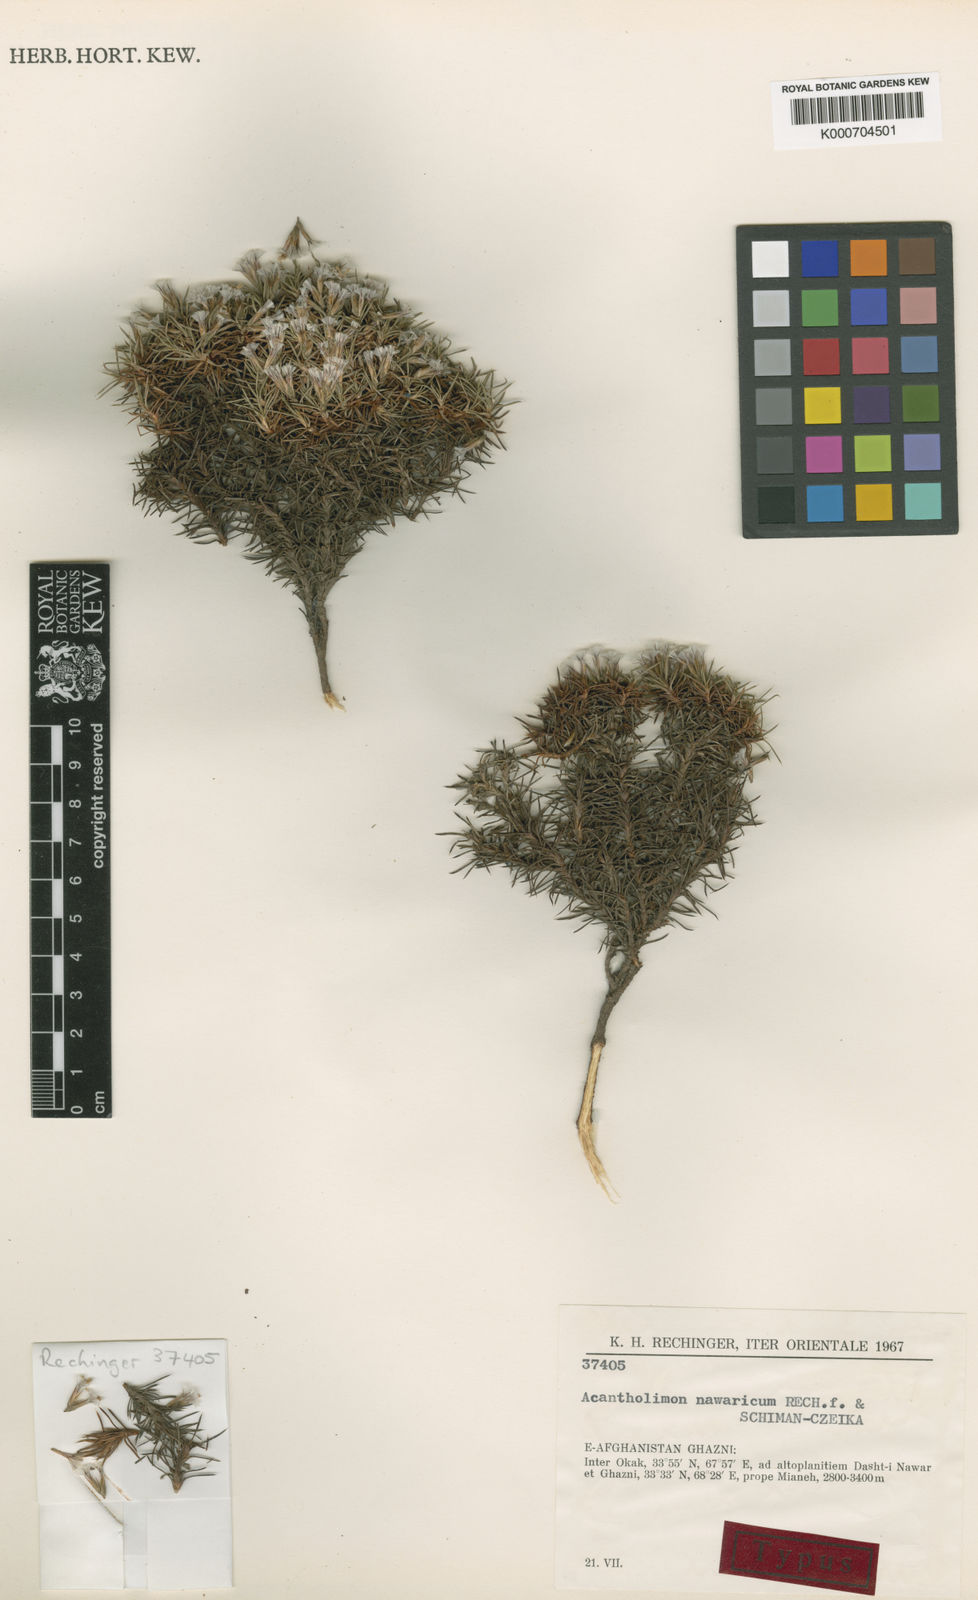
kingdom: Plantae
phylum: Tracheophyta
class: Magnoliopsida
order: Caryophyllales
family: Plumbaginaceae
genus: Acantholimon
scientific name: Acantholimon nawaricum
